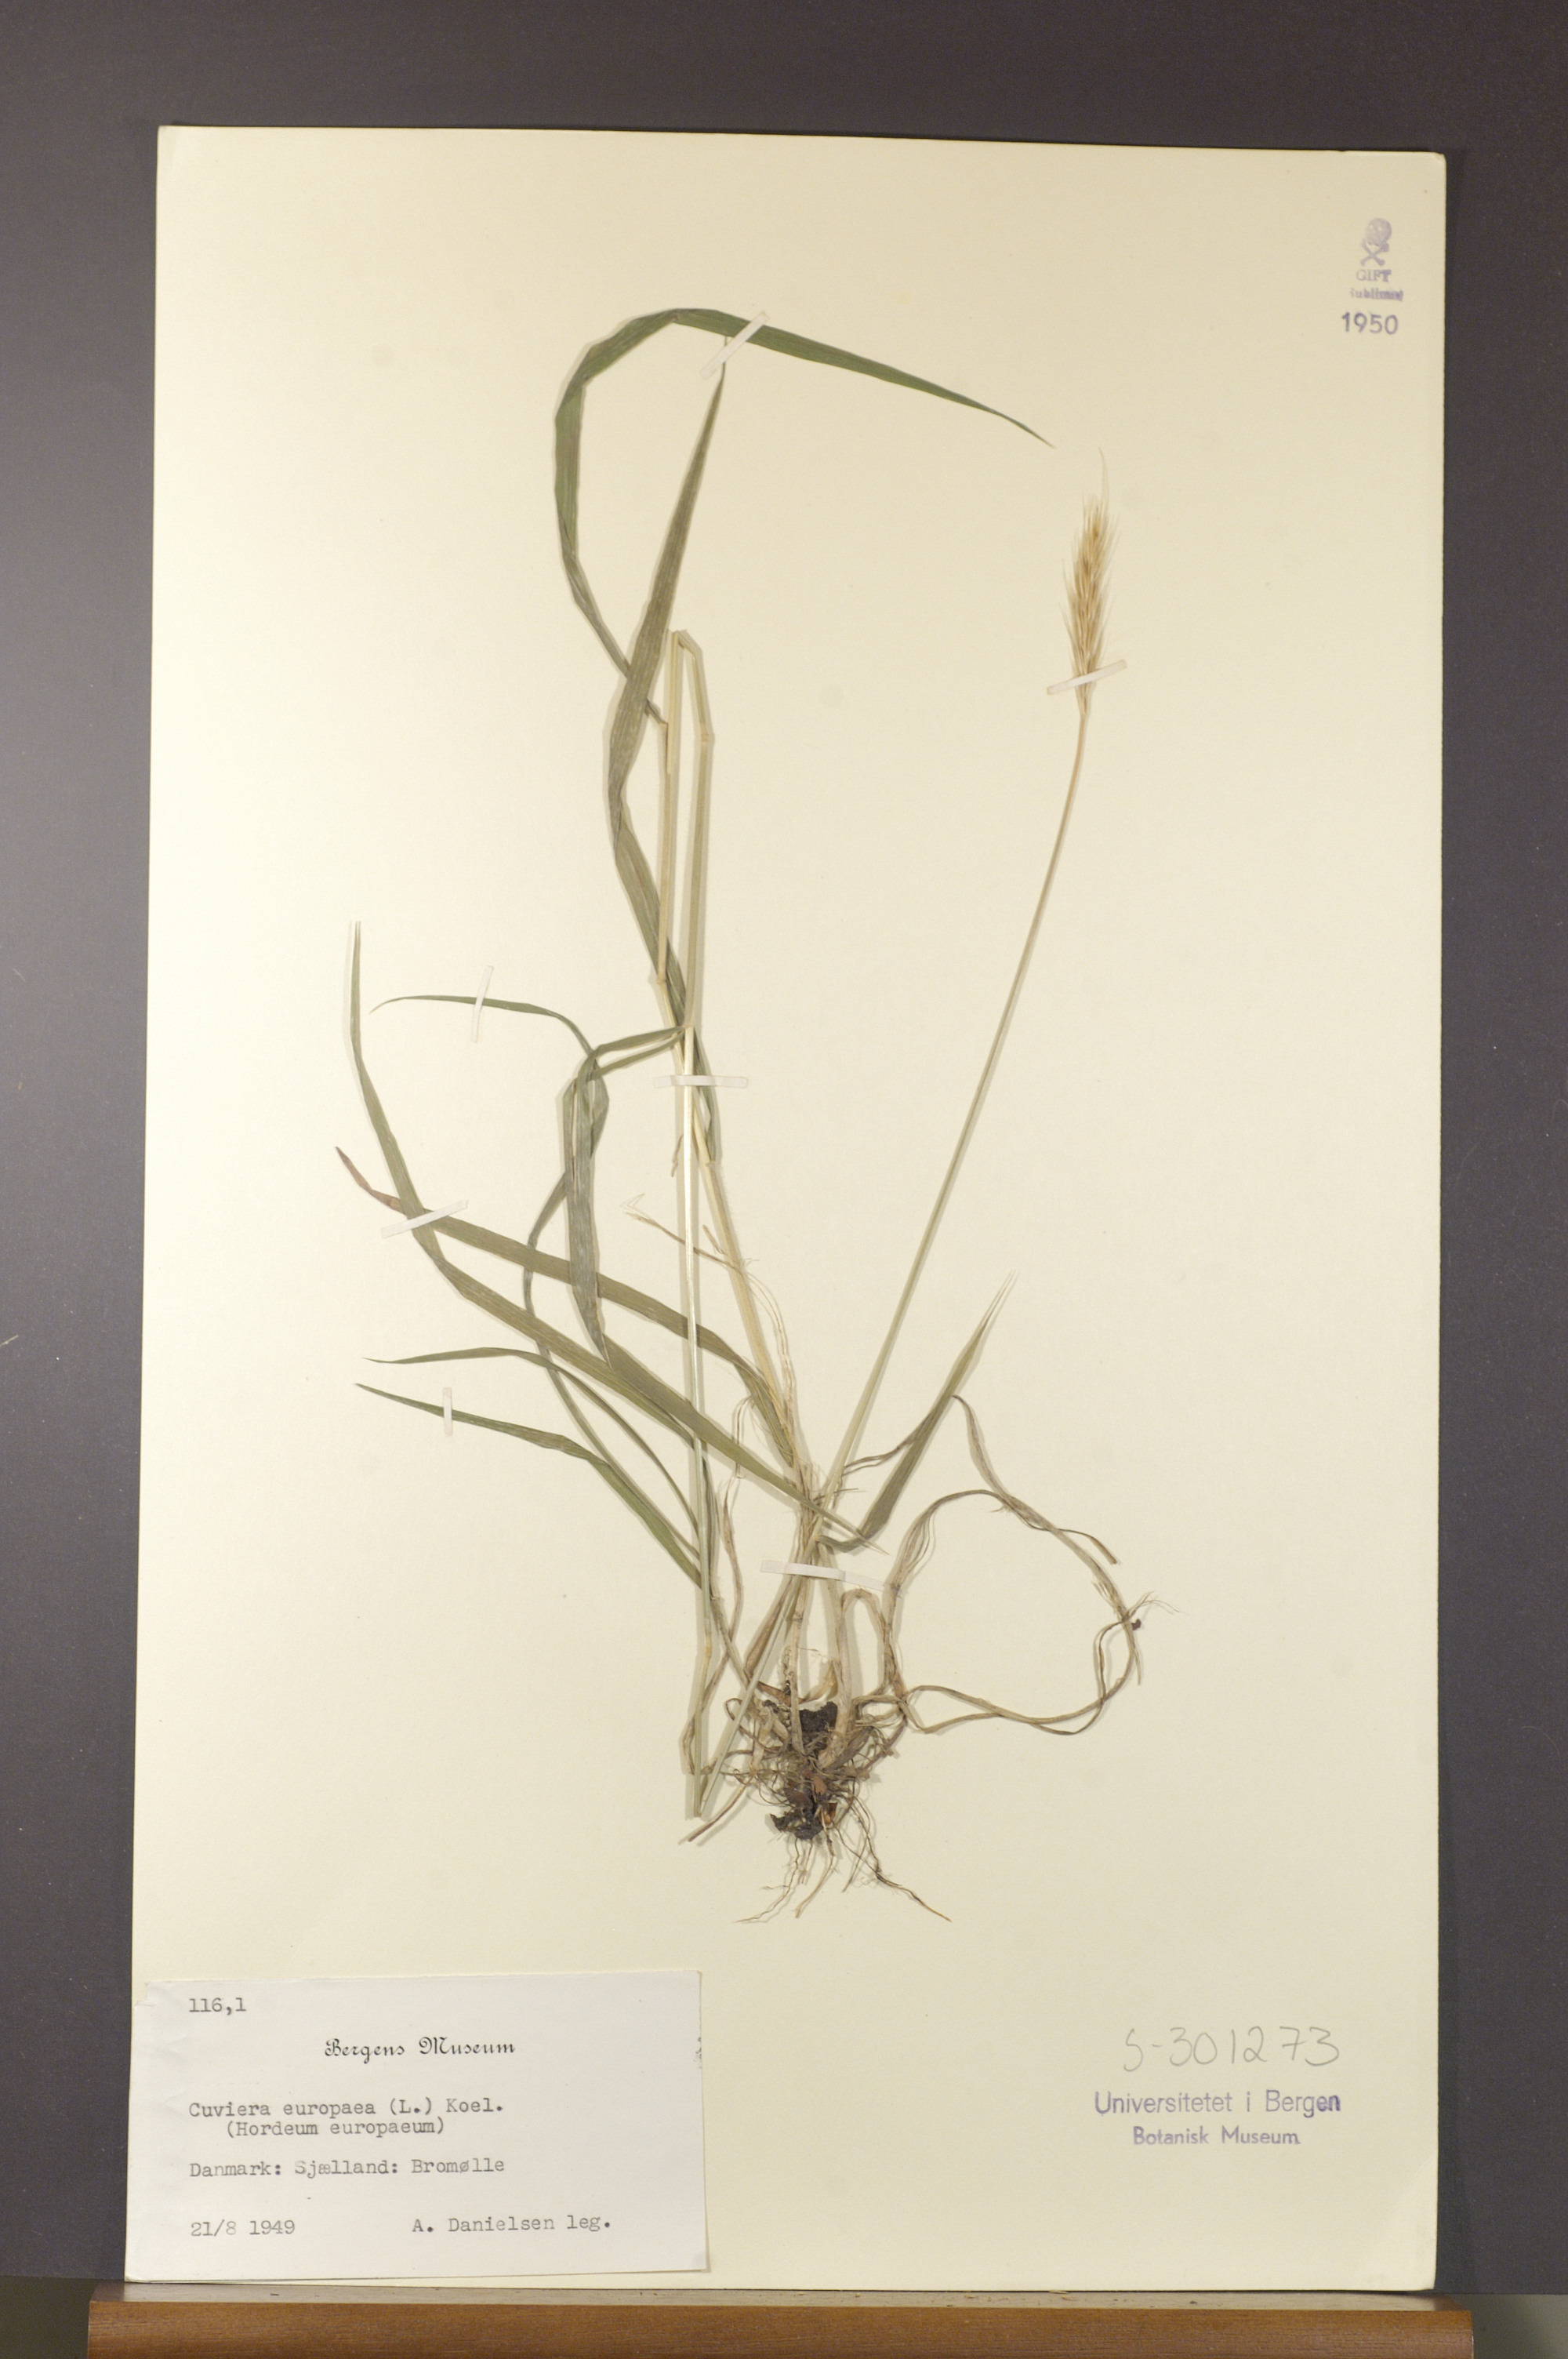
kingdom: Plantae
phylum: Tracheophyta
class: Liliopsida
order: Poales
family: Poaceae
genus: Hordelymus
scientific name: Hordelymus europaeus
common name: Wood-barley
